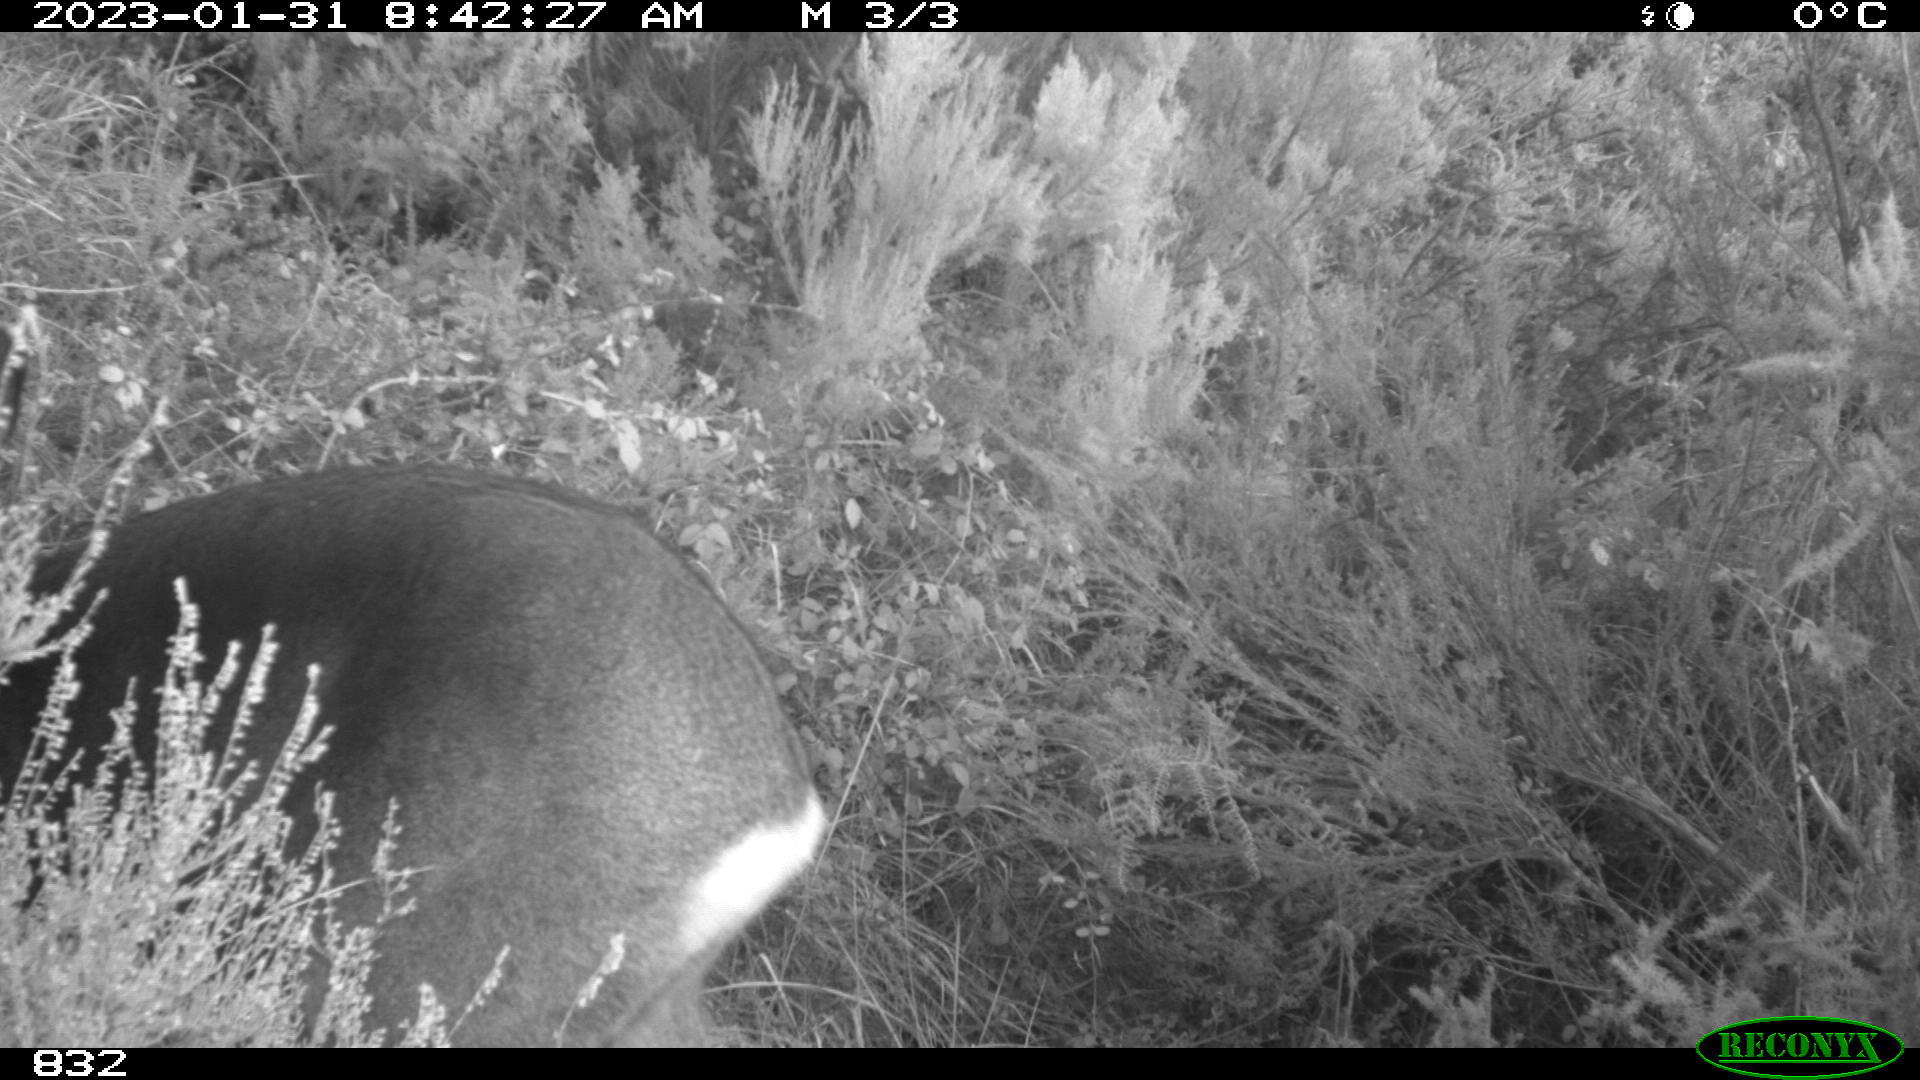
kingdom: Animalia
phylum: Chordata
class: Mammalia
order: Artiodactyla
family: Cervidae
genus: Capreolus
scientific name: Capreolus capreolus
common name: Western roe deer
